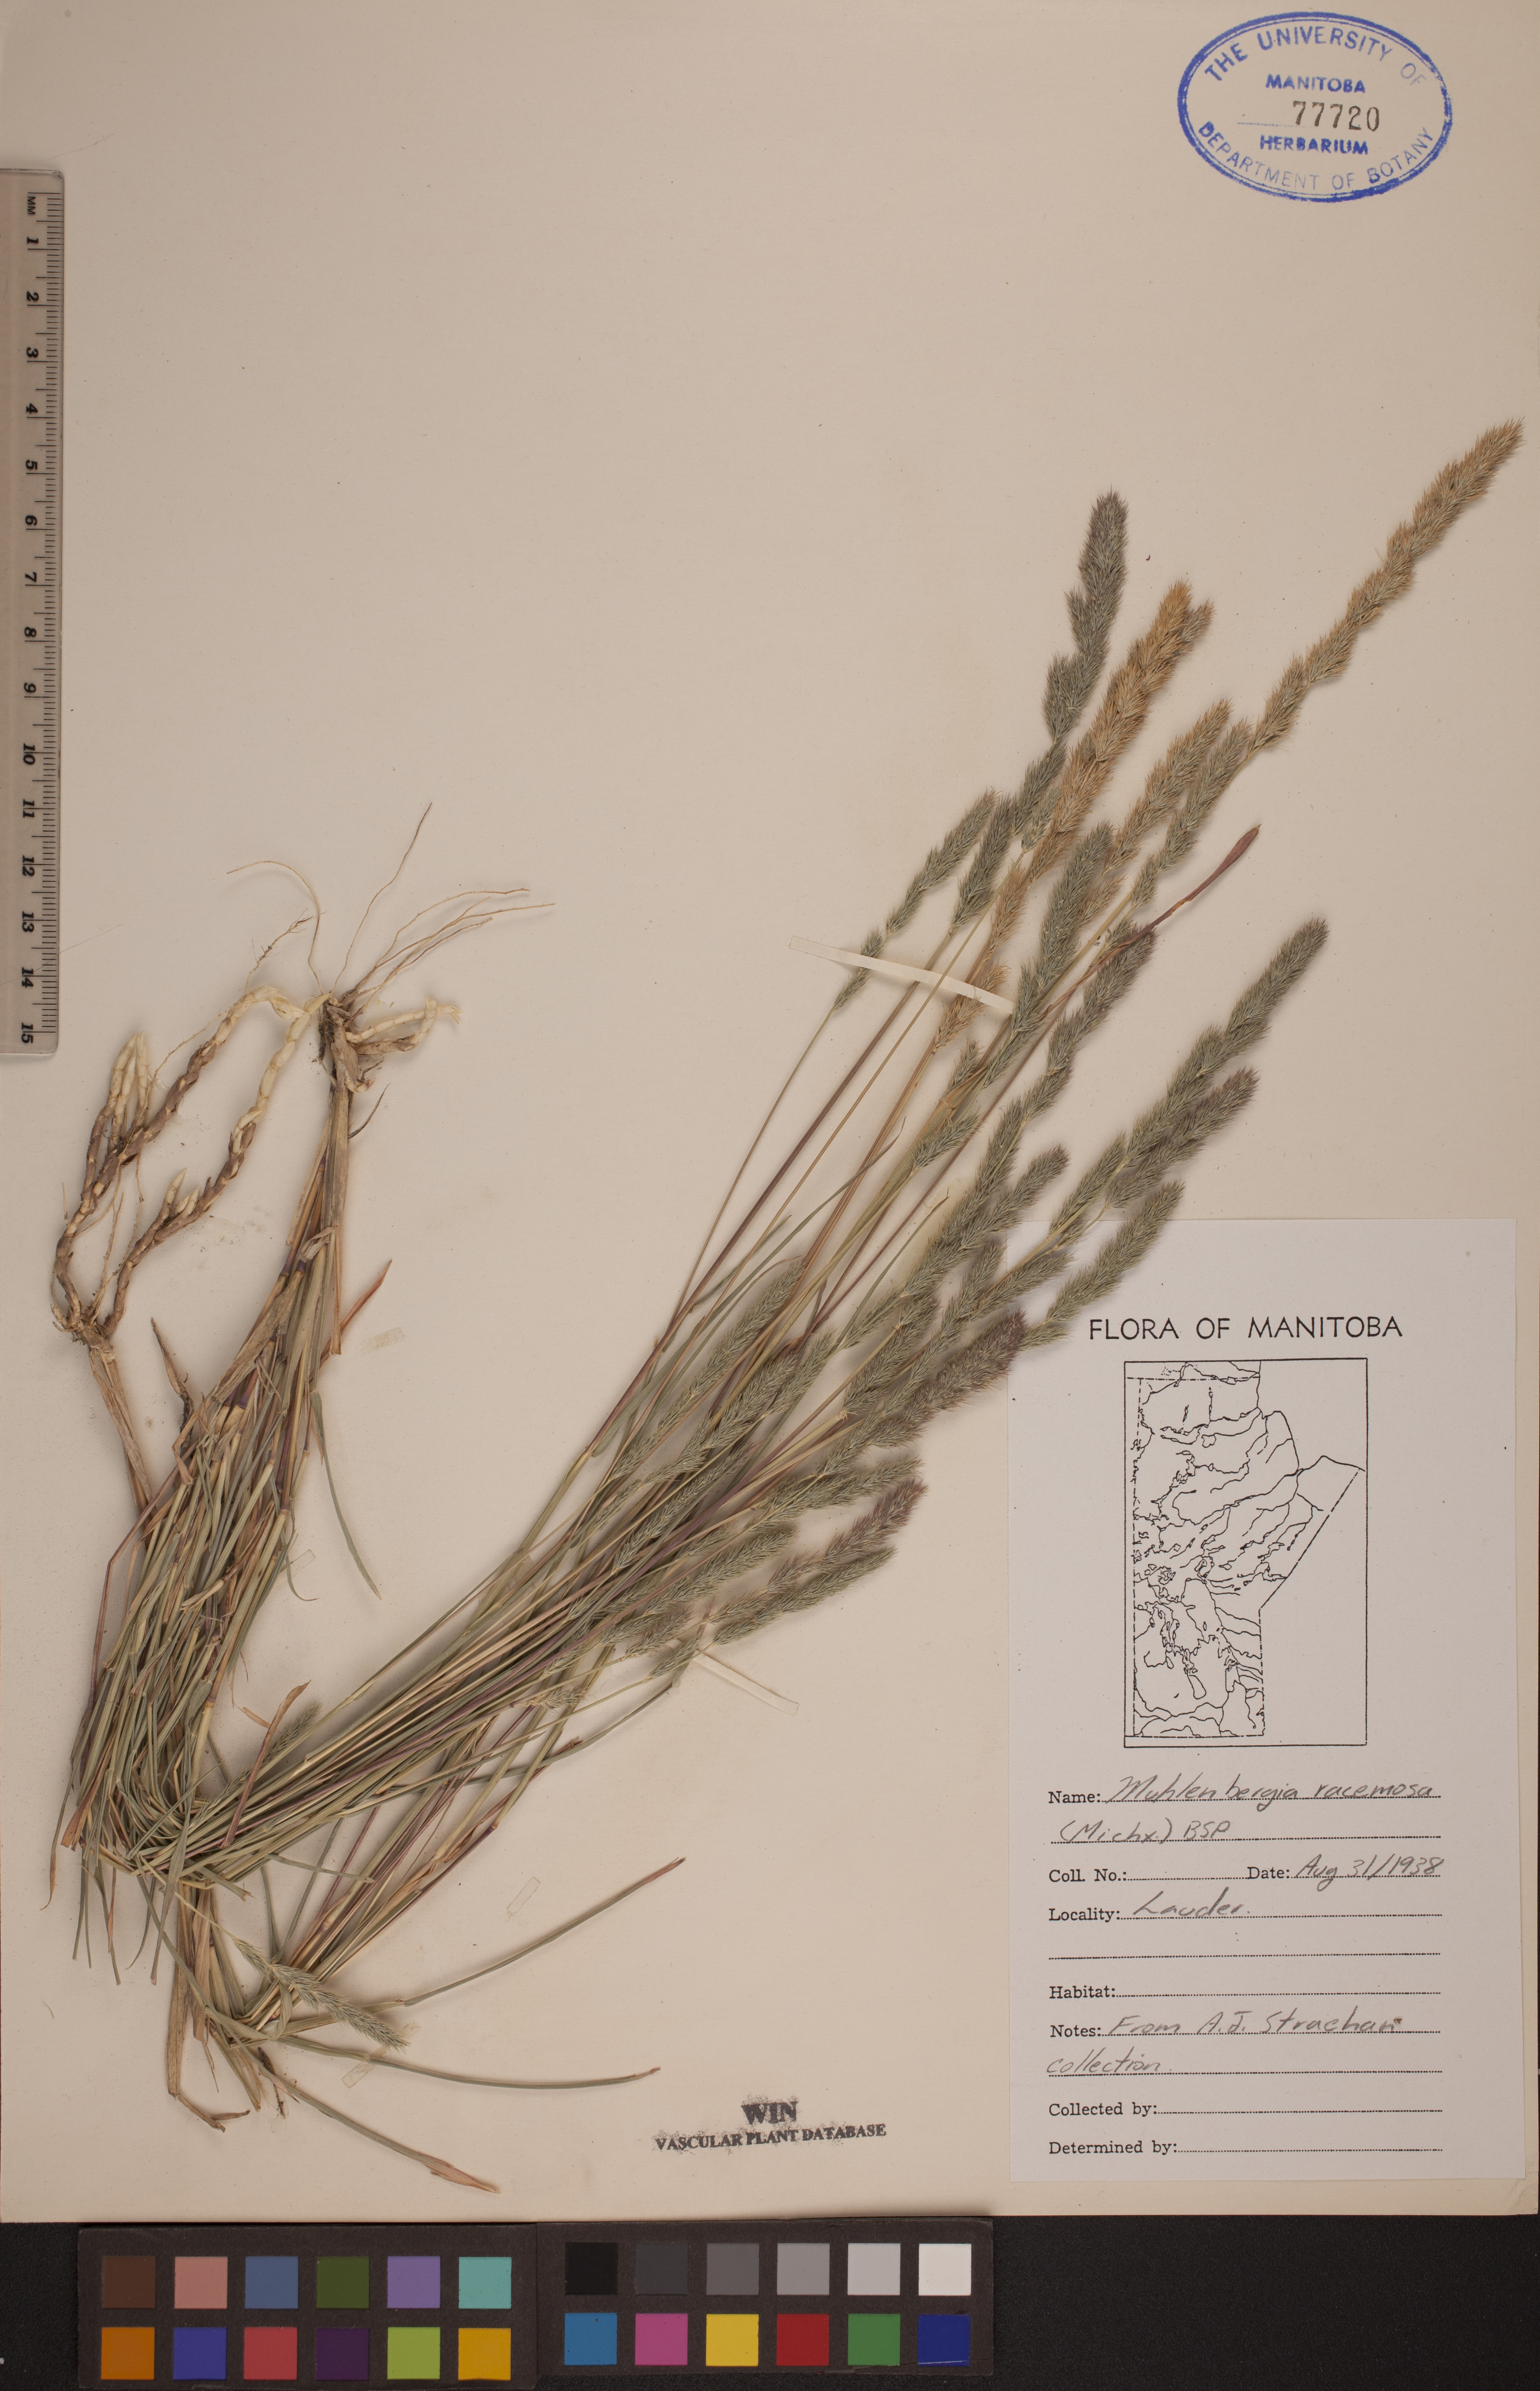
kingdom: Plantae
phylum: Tracheophyta
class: Liliopsida
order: Poales
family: Poaceae
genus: Muhlenbergia
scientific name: Muhlenbergia racemosa
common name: Green muhly
